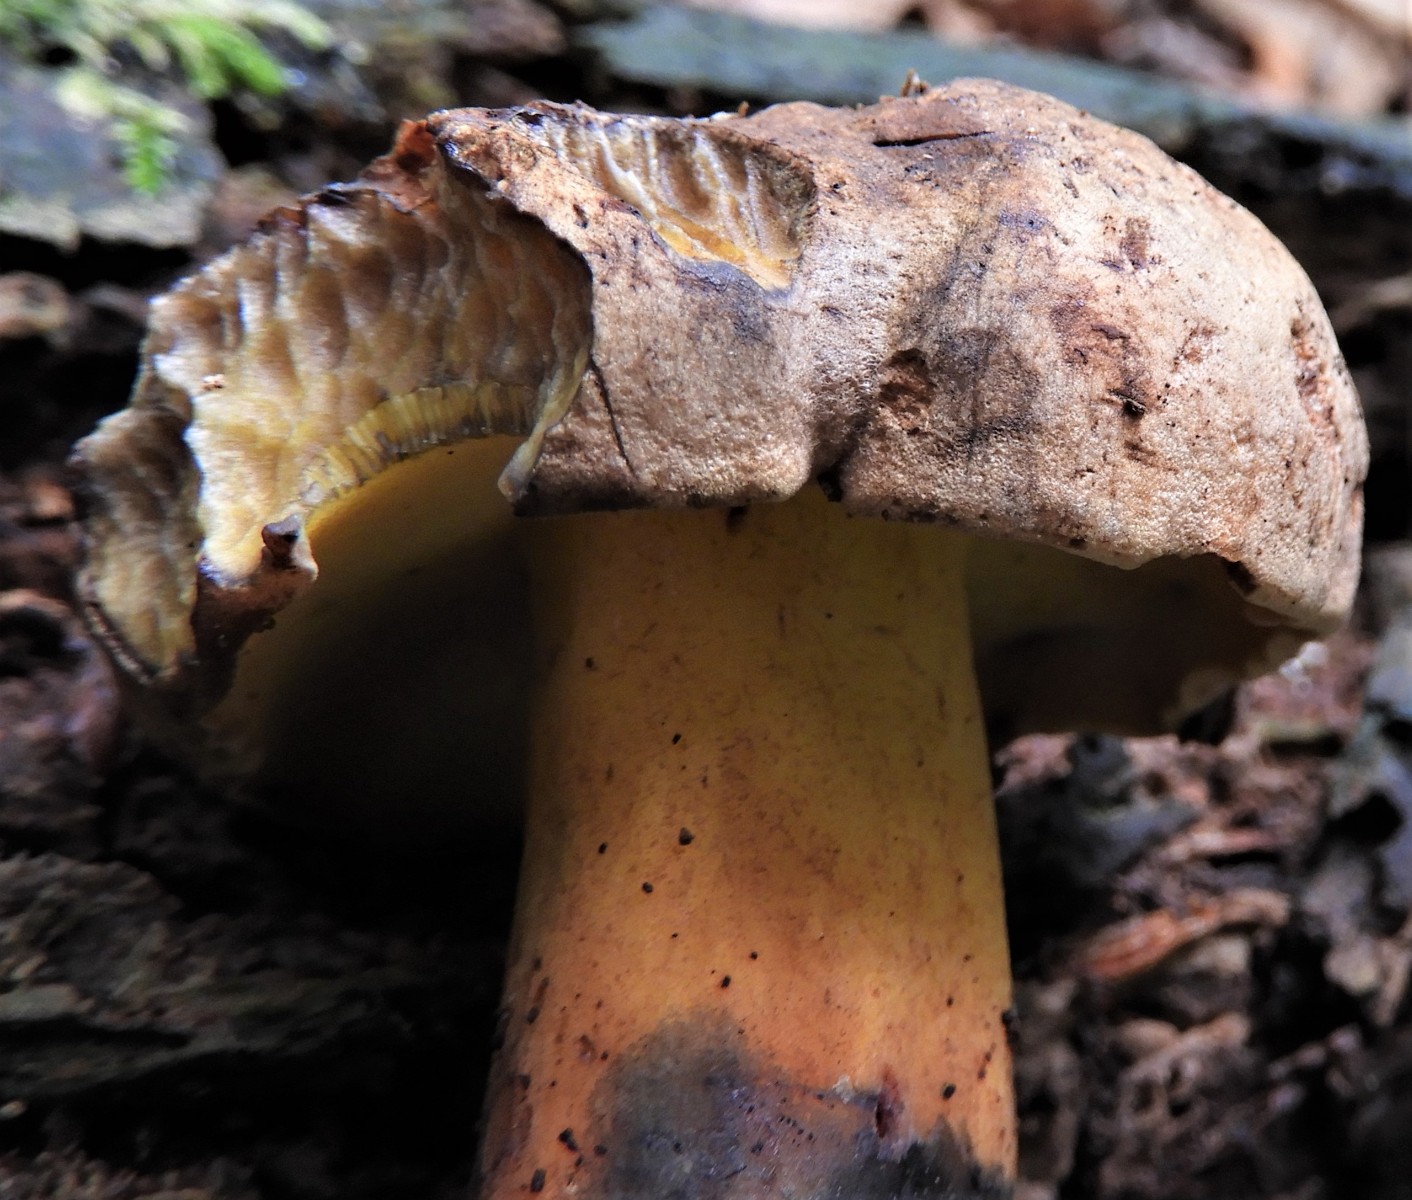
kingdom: Fungi
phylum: Basidiomycota
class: Agaricomycetes
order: Boletales
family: Boletaceae
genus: Cyanoboletus
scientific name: Cyanoboletus pulverulentus
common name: sortblånende rørhat
